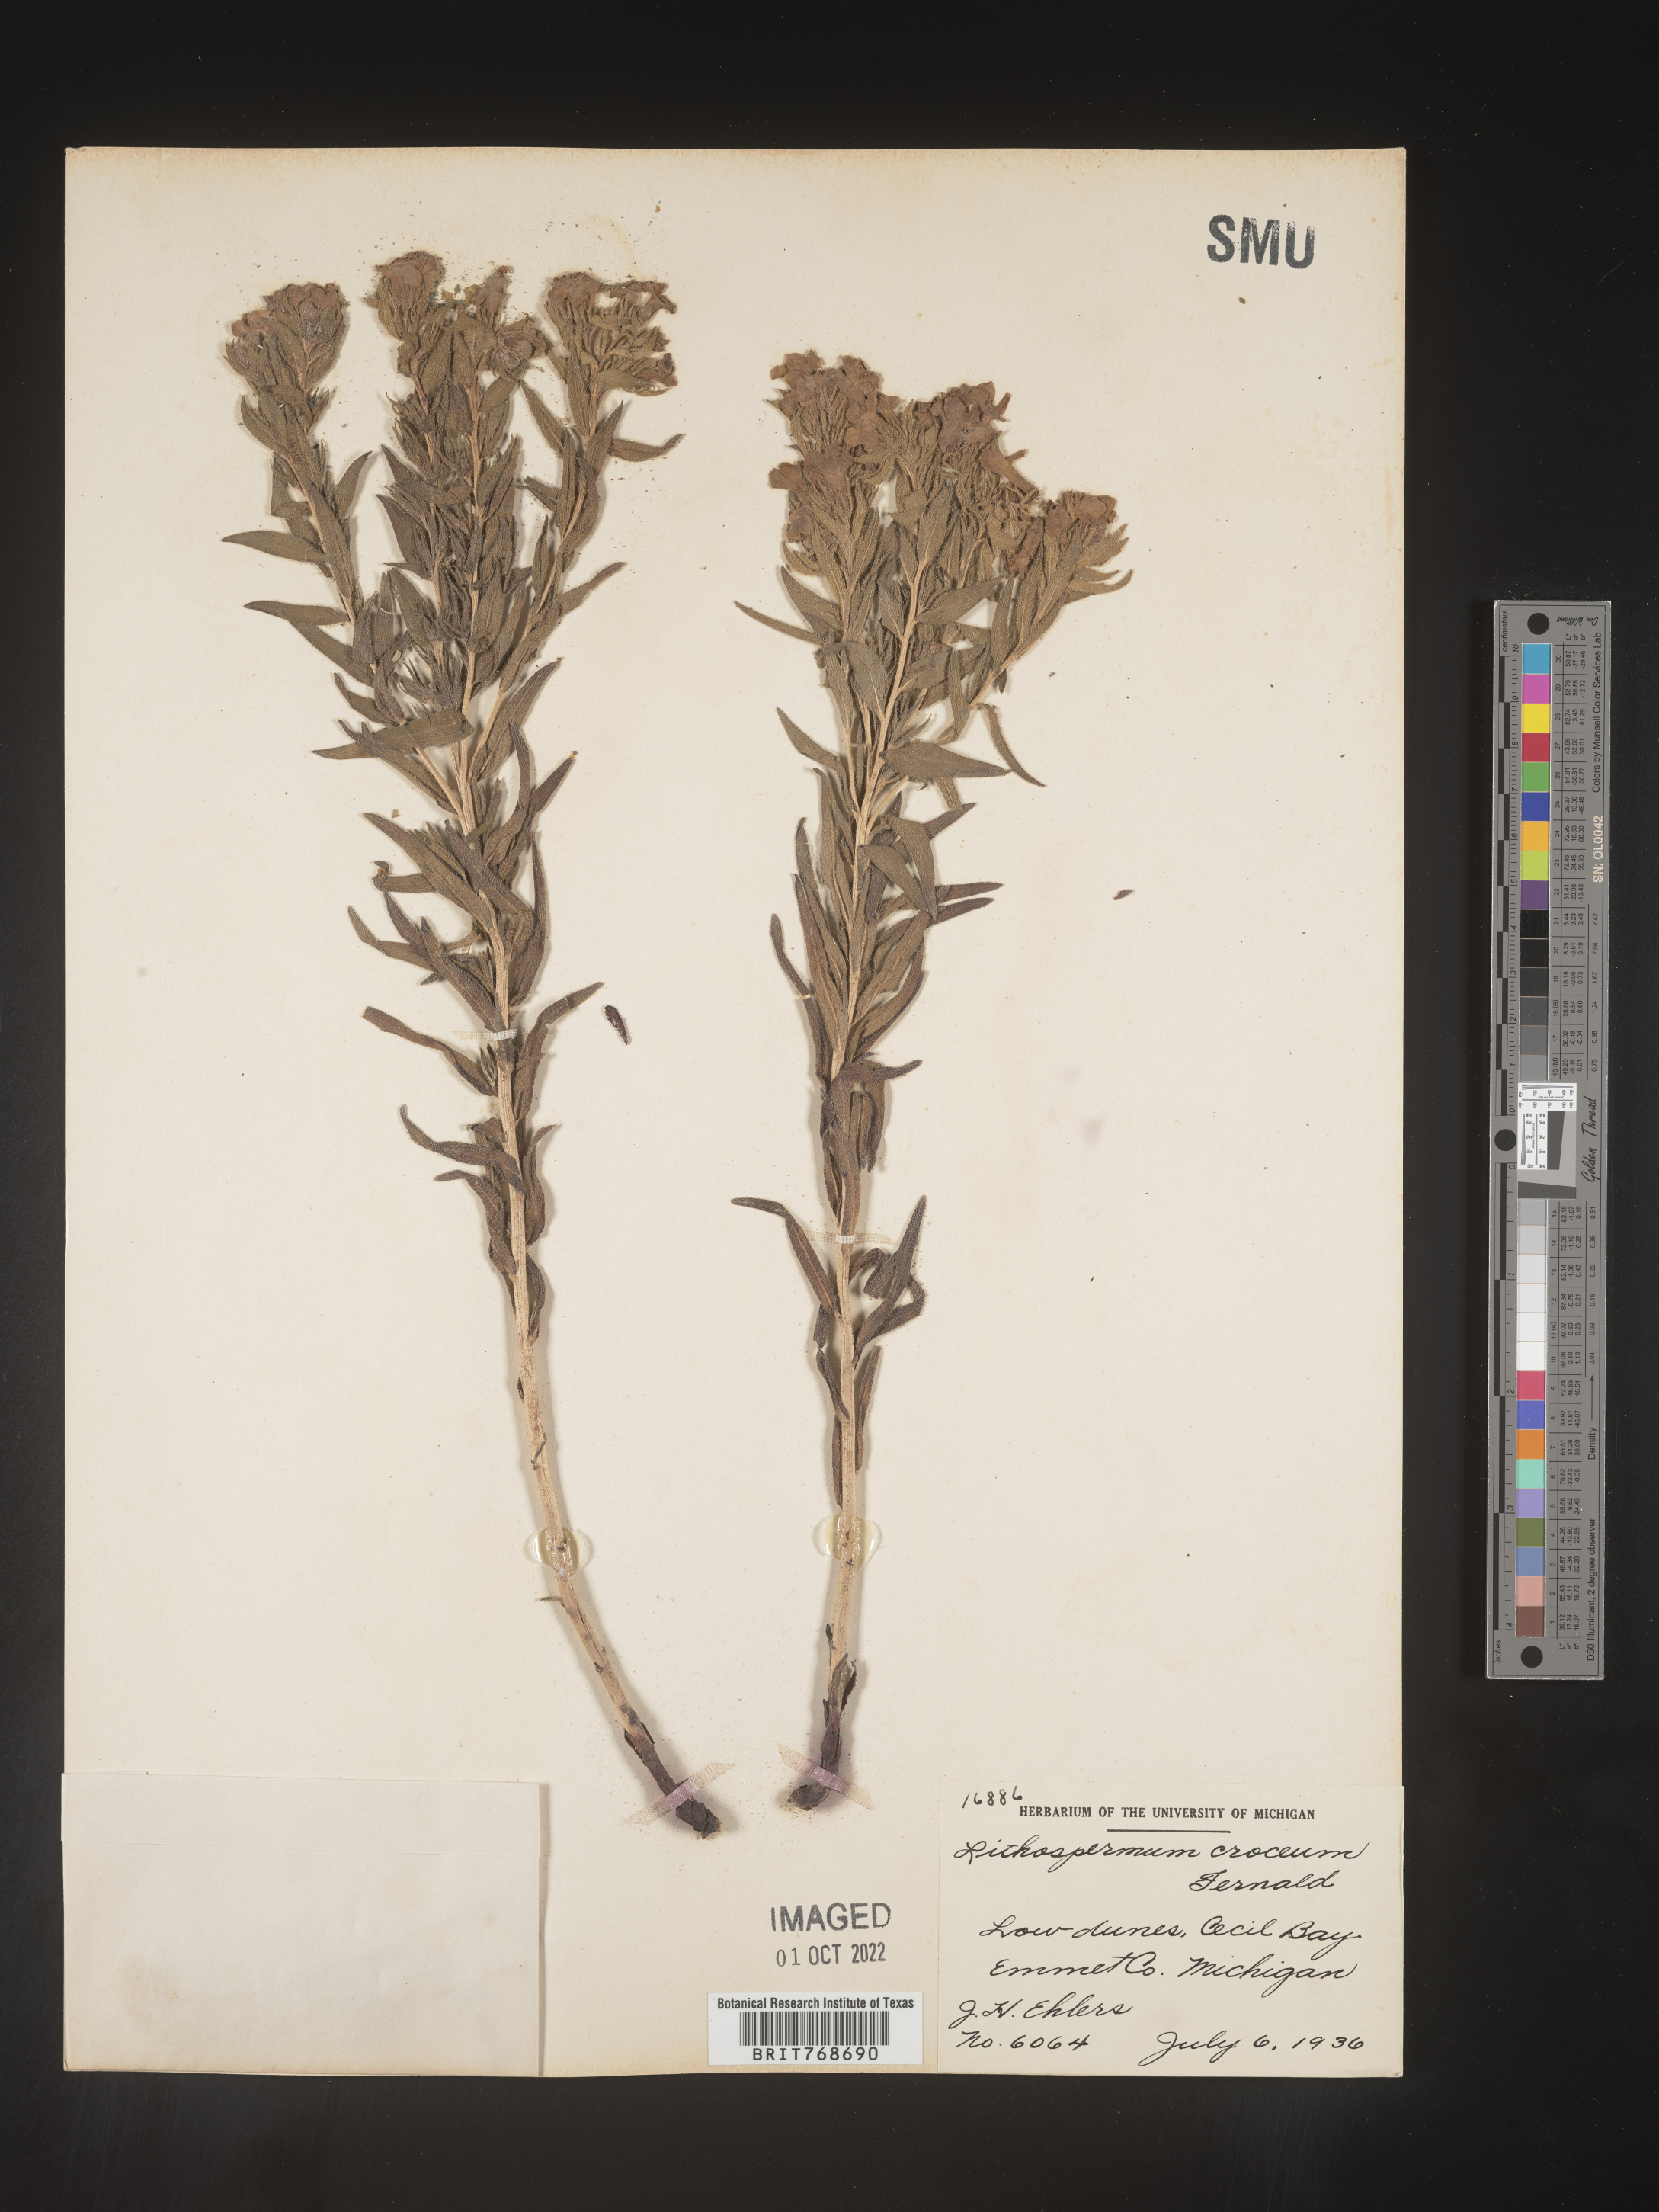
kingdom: Plantae
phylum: Tracheophyta
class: Magnoliopsida
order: Boraginales
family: Boraginaceae
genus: Lithospermum
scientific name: Lithospermum cobrense
